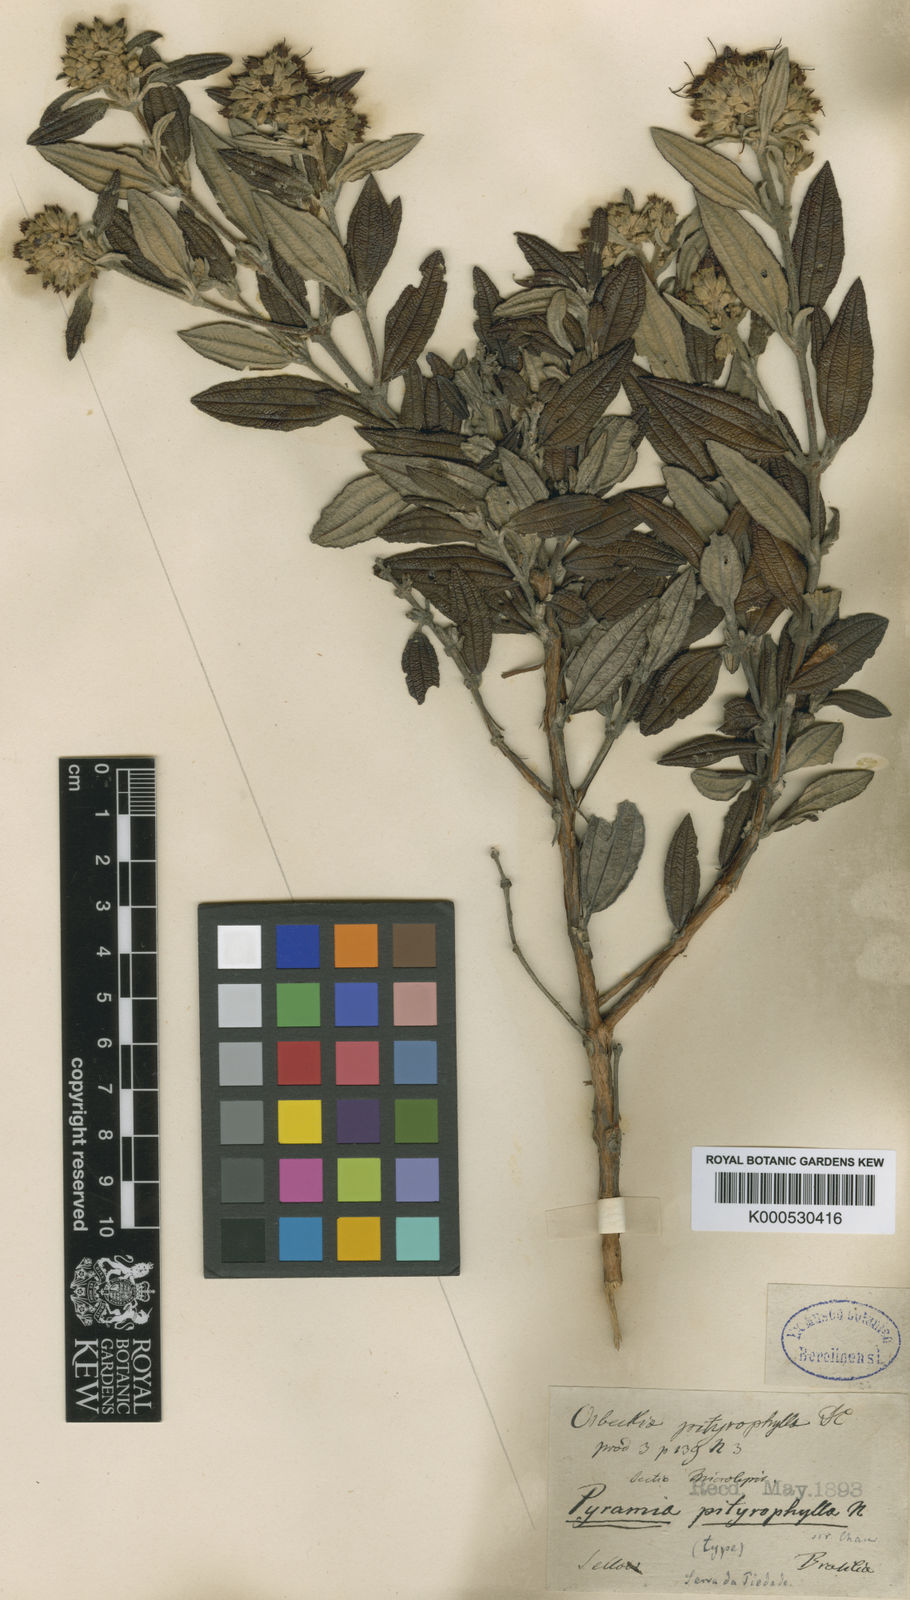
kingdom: Plantae
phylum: Tracheophyta
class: Magnoliopsida
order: Myrtales
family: Melastomataceae
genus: Cambessedesia
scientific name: Cambessedesia pityrophylla
